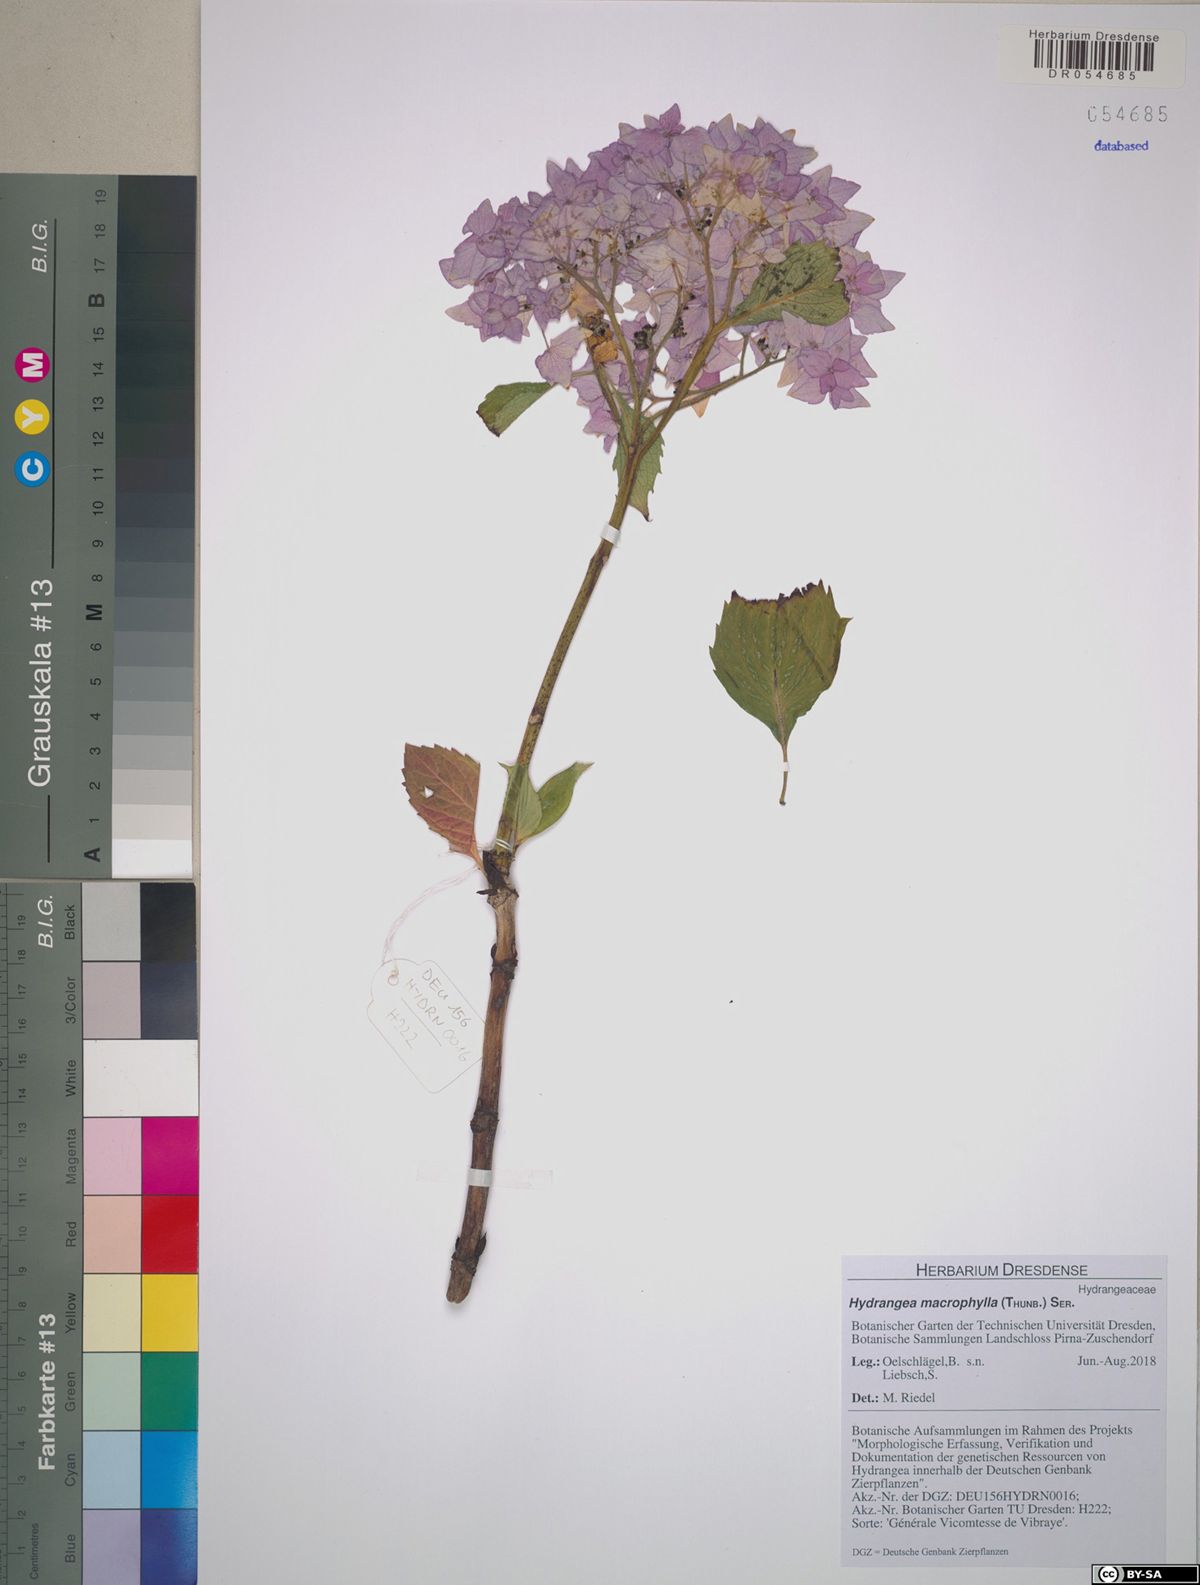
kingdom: Plantae
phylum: Tracheophyta
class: Magnoliopsida
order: Cornales
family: Hydrangeaceae
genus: Hydrangea
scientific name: Hydrangea macrophylla
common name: Hydrangea
